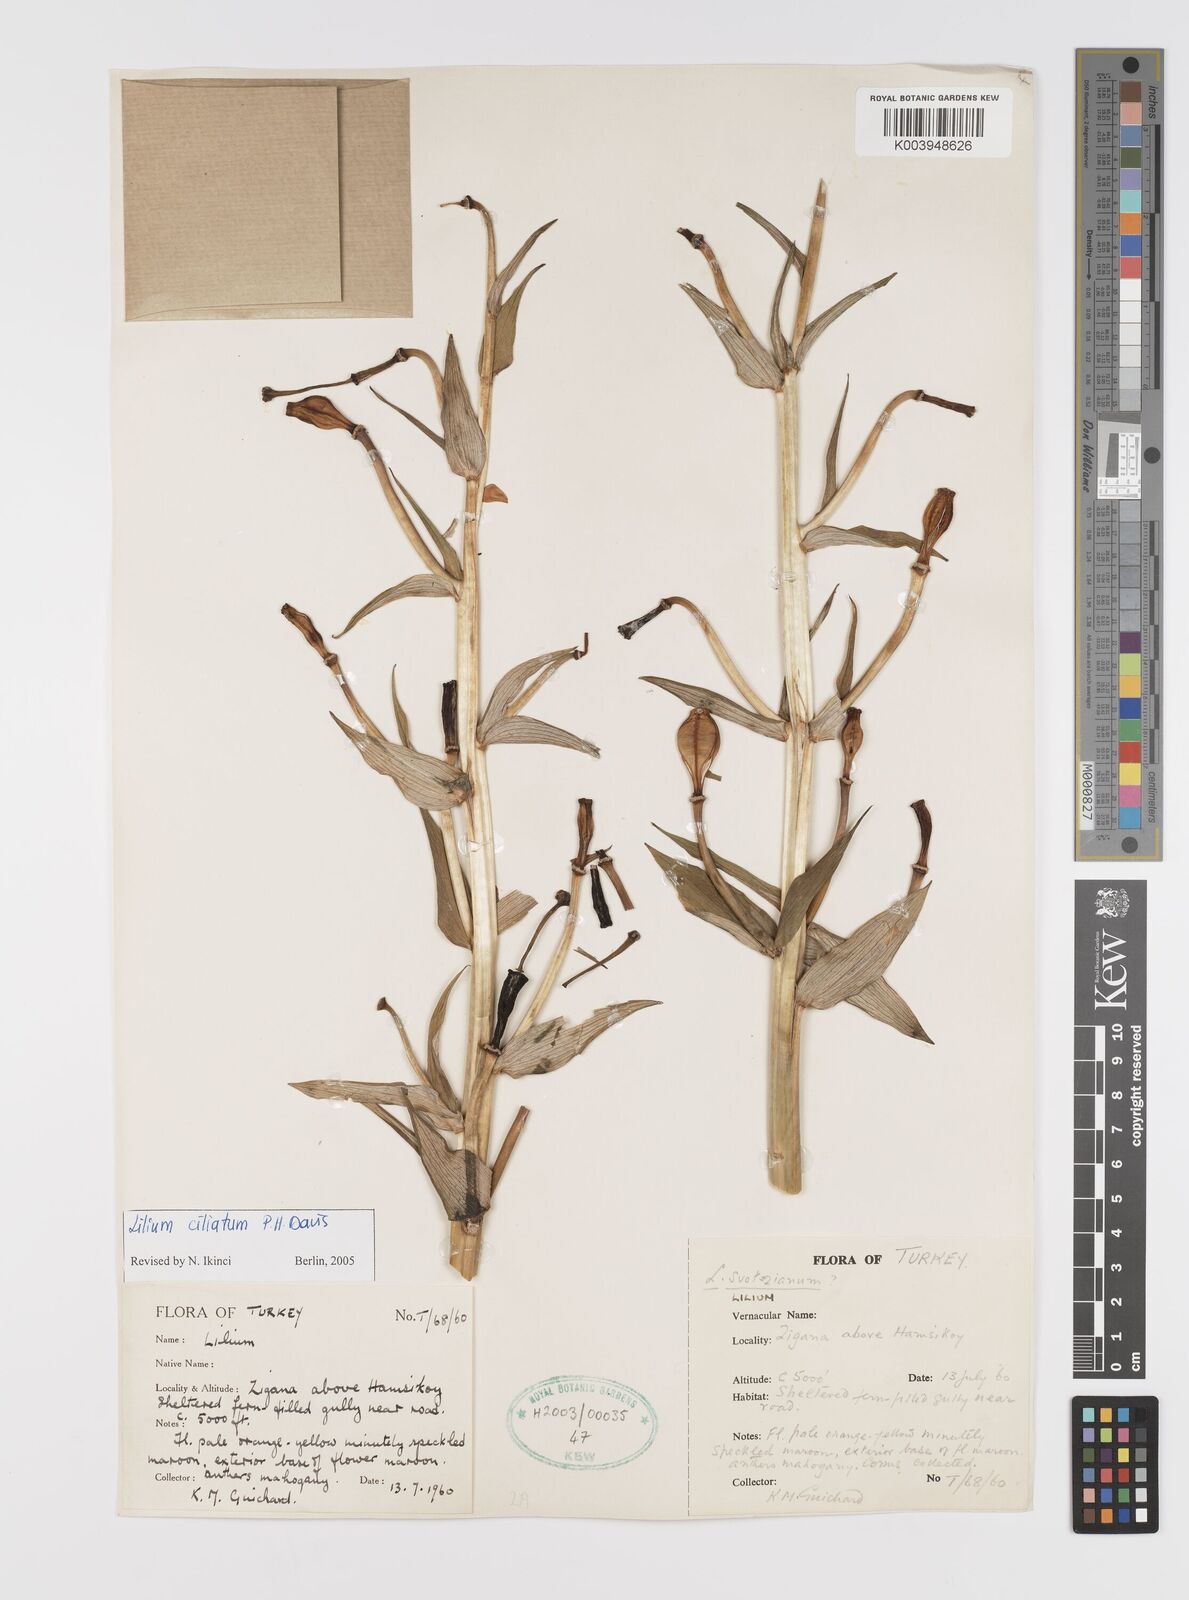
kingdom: Plantae
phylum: Tracheophyta
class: Liliopsida
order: Liliales
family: Liliaceae
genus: Lilium
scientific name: Lilium ciliatum
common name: Ciliate lily
